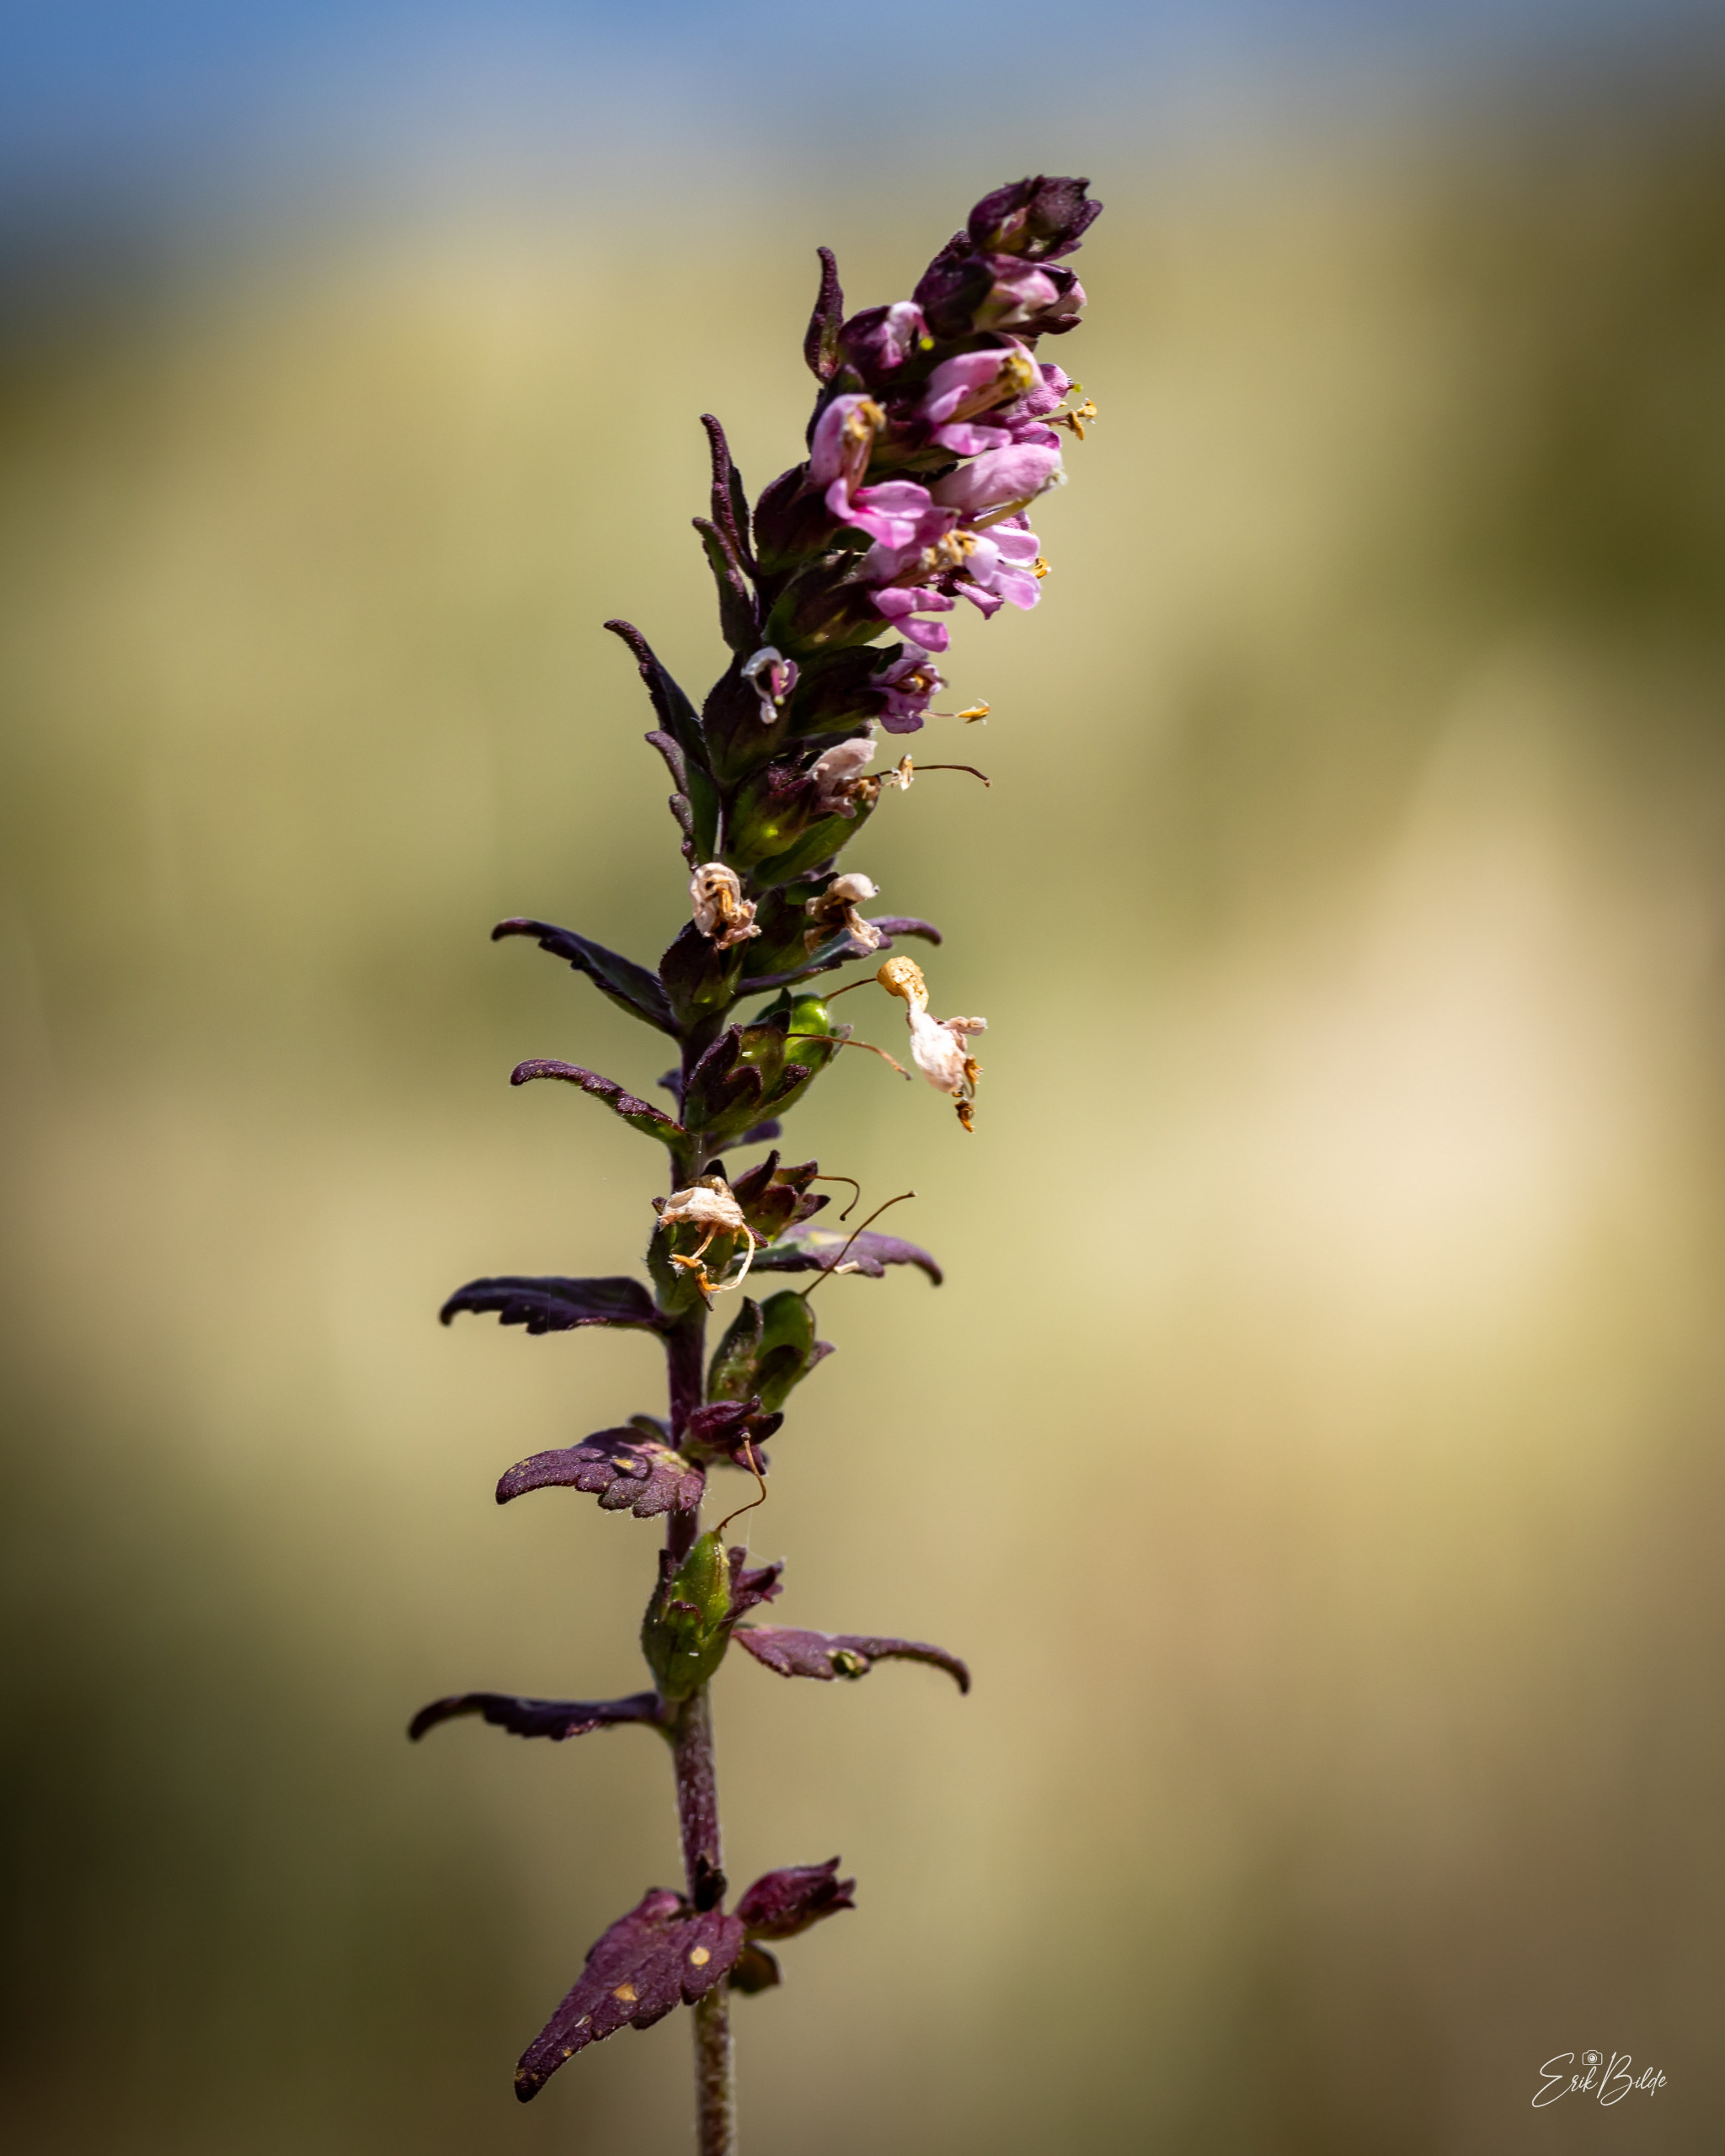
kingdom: Plantae
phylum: Tracheophyta
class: Magnoliopsida
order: Lamiales
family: Orobanchaceae
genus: Odontites
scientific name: Odontites vernus
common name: Mark-rødtop
